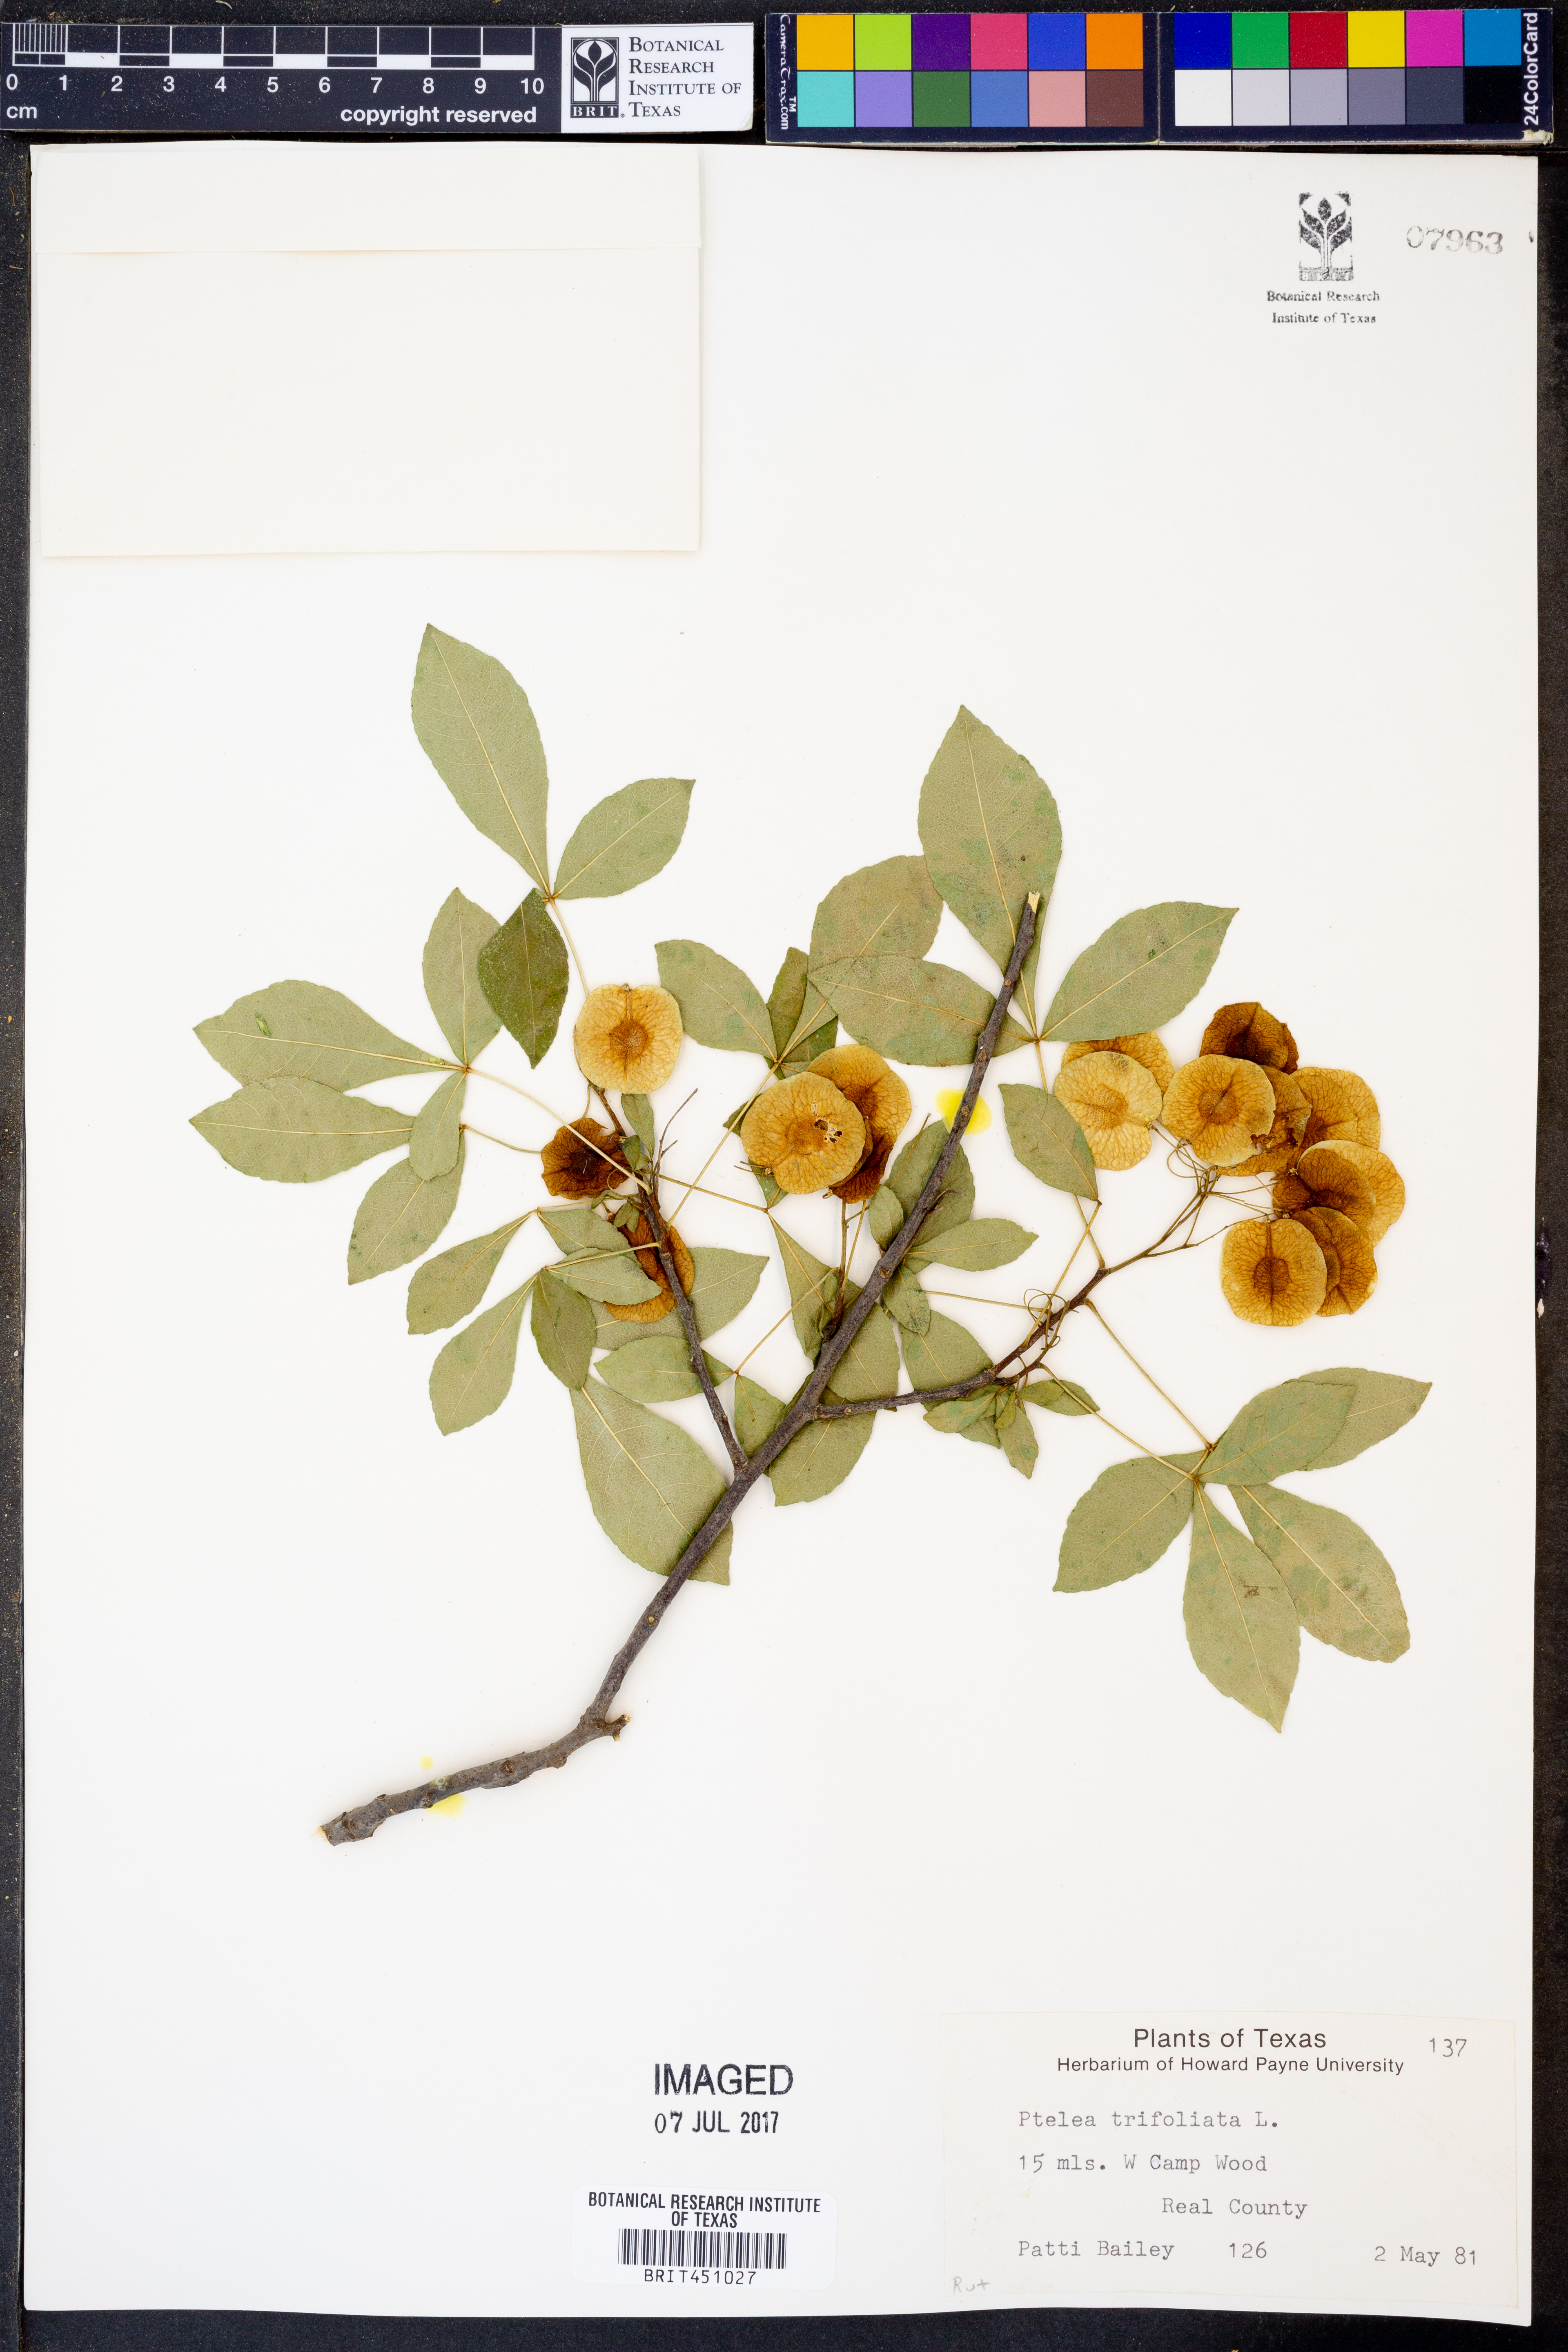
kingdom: Plantae
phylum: Tracheophyta
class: Magnoliopsida
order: Sapindales
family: Rutaceae
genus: Ptelea
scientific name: Ptelea trifoliata
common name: Common hop-tree
